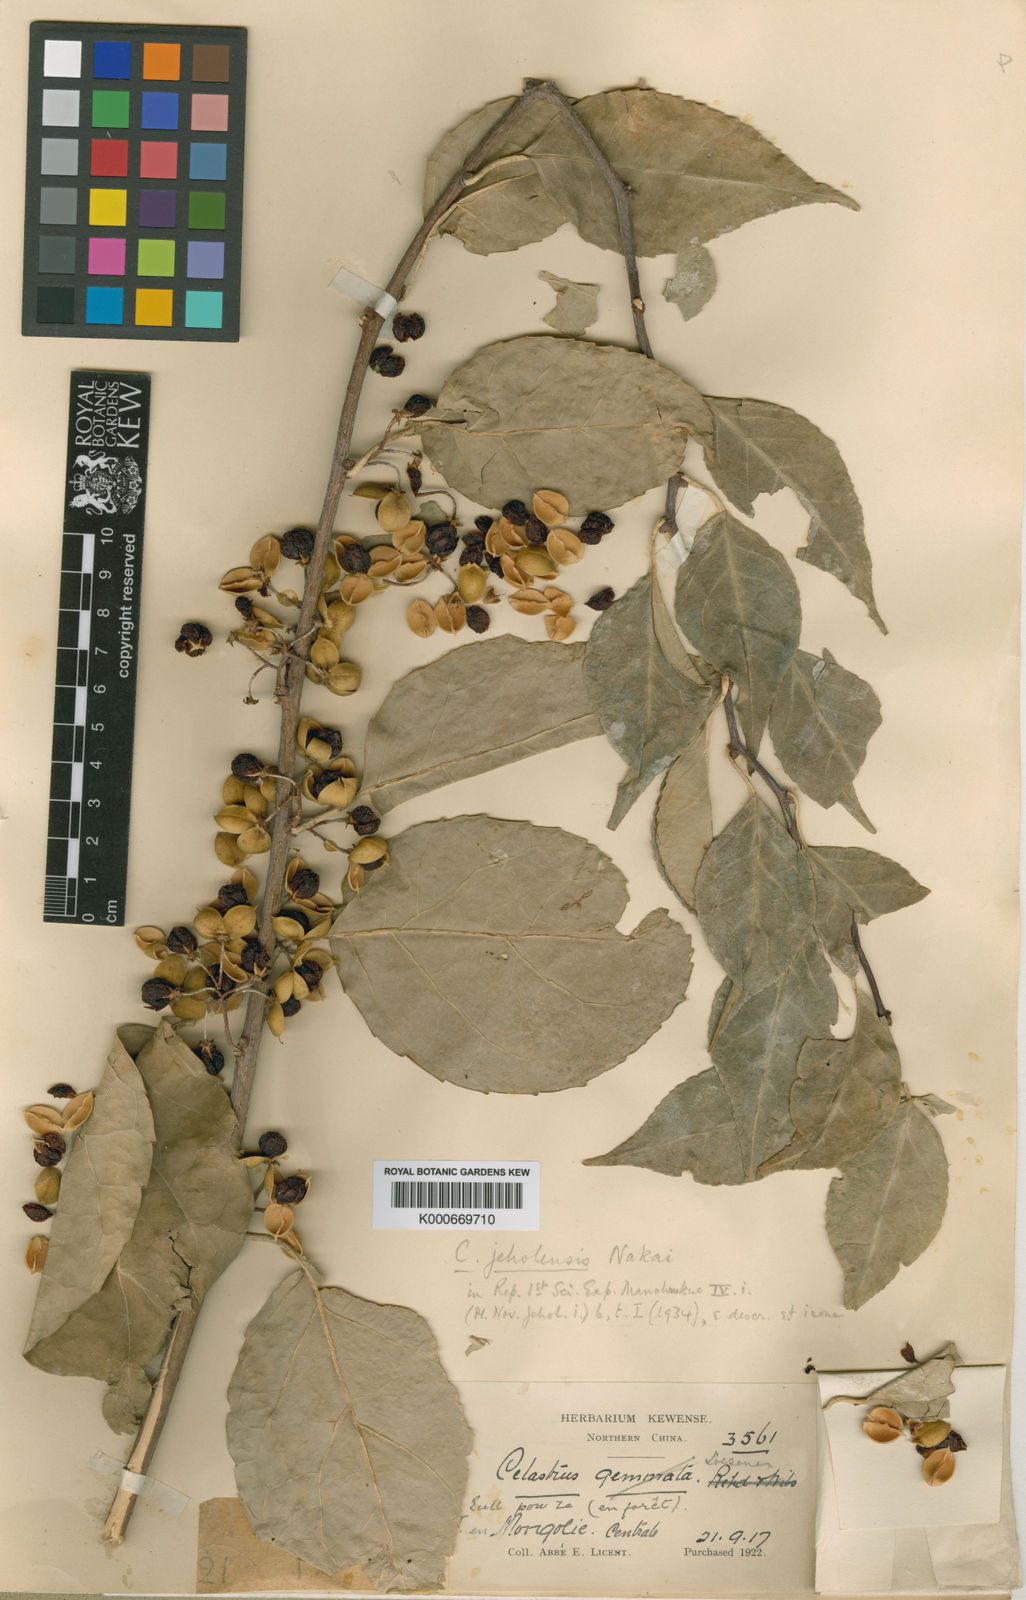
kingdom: Plantae
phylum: Tracheophyta
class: Magnoliopsida
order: Celastrales
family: Celastraceae
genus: Celastrus
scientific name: Celastrus orbiculatus
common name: Oriental bittersweet
